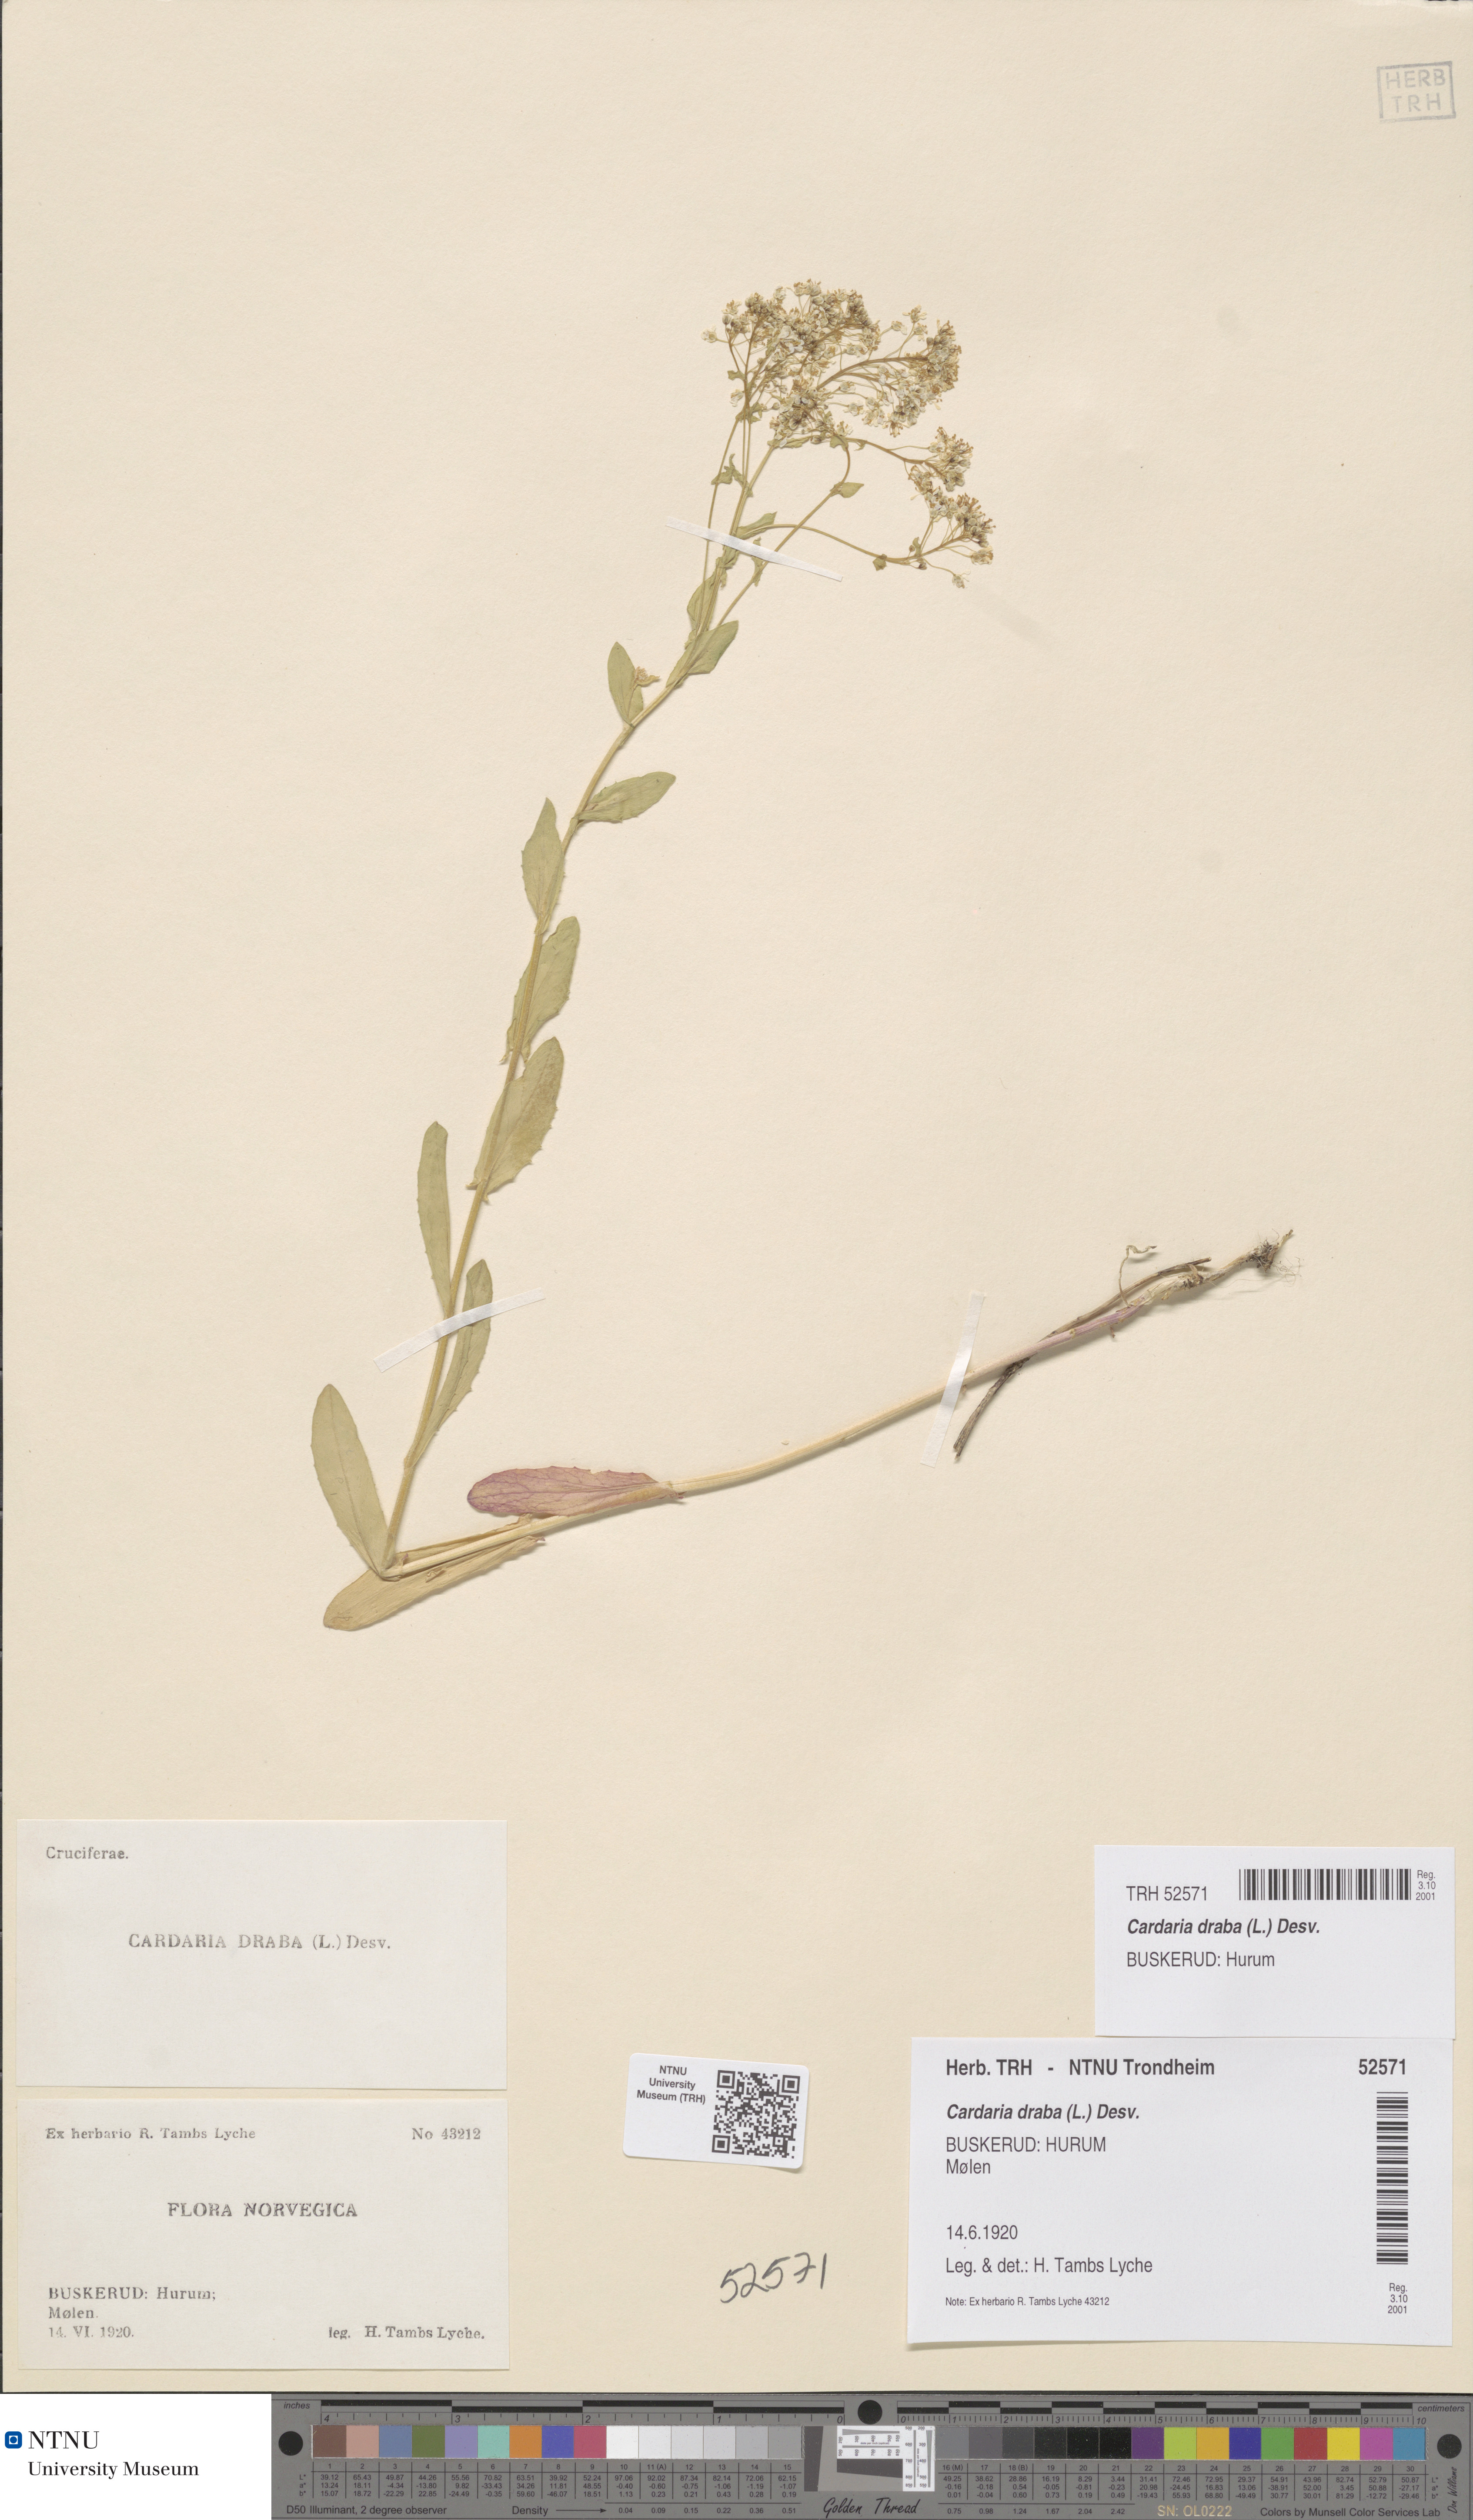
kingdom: Plantae
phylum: Tracheophyta
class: Magnoliopsida
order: Brassicales
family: Brassicaceae
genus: Lepidium
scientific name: Lepidium draba
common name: Hoary cress
